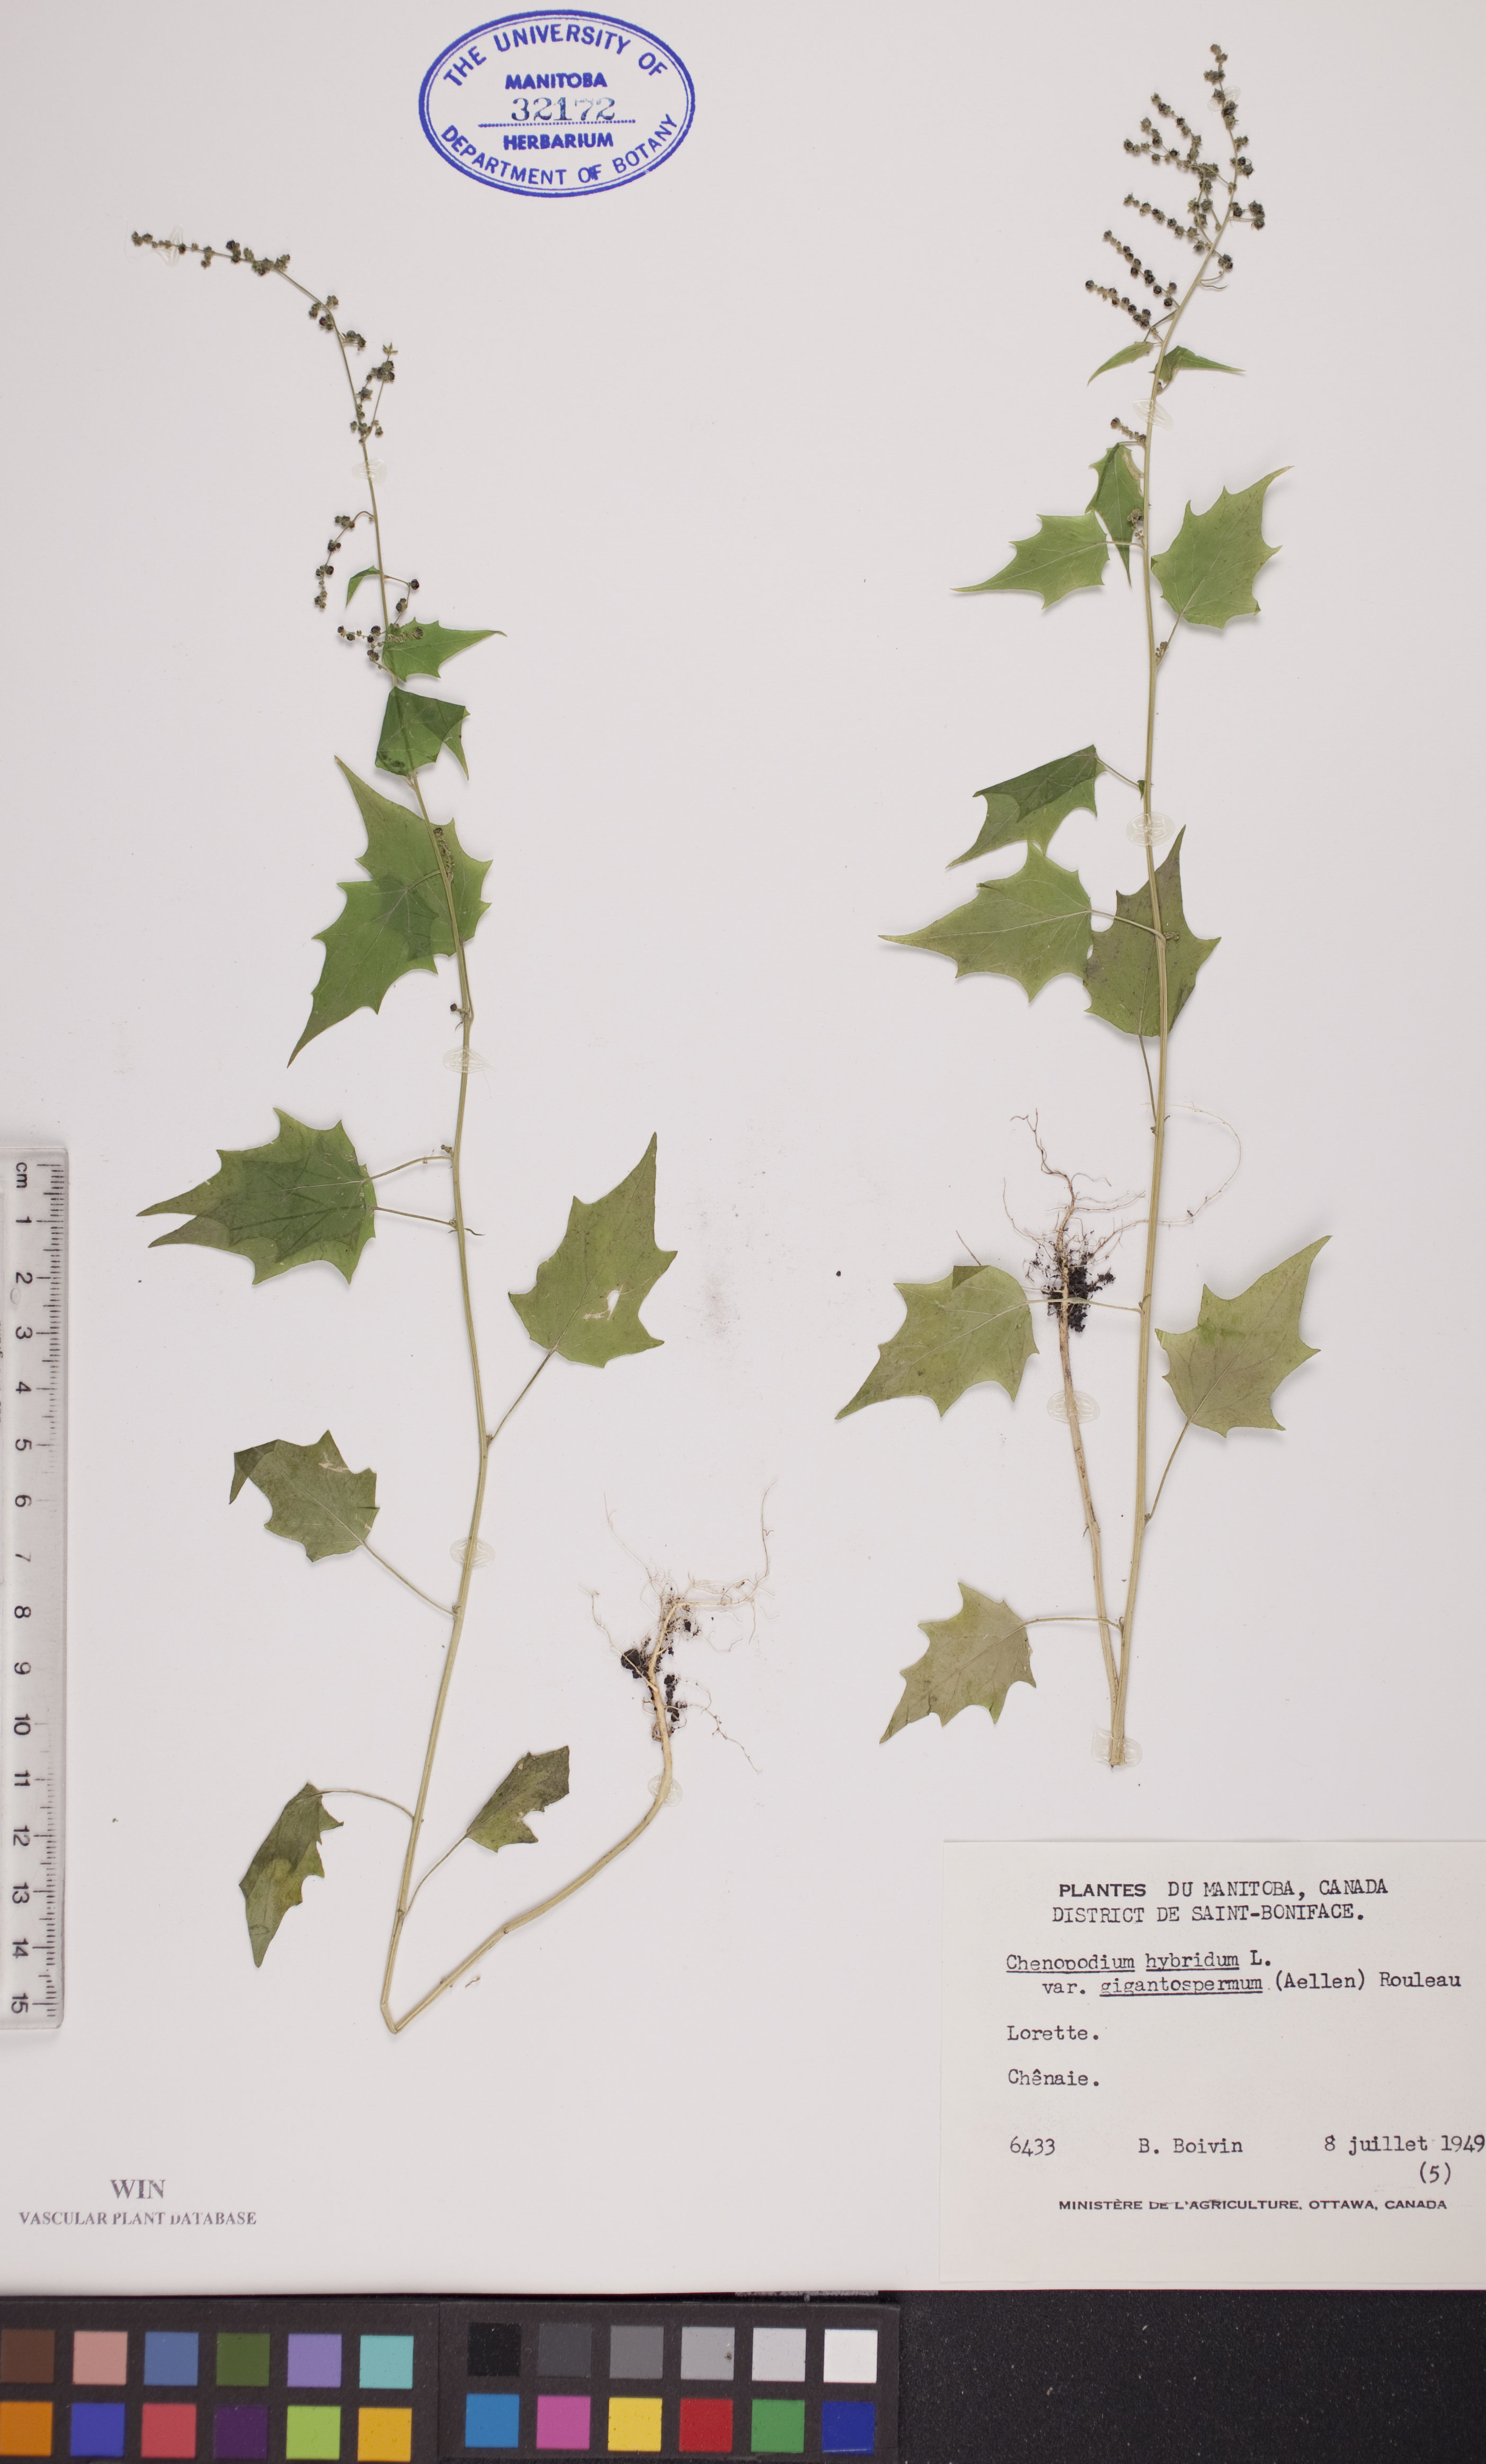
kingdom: Plantae
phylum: Tracheophyta
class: Magnoliopsida
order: Caryophyllales
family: Amaranthaceae
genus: Chenopodiastrum
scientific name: Chenopodiastrum simplex
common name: Large-seed goosefoot
